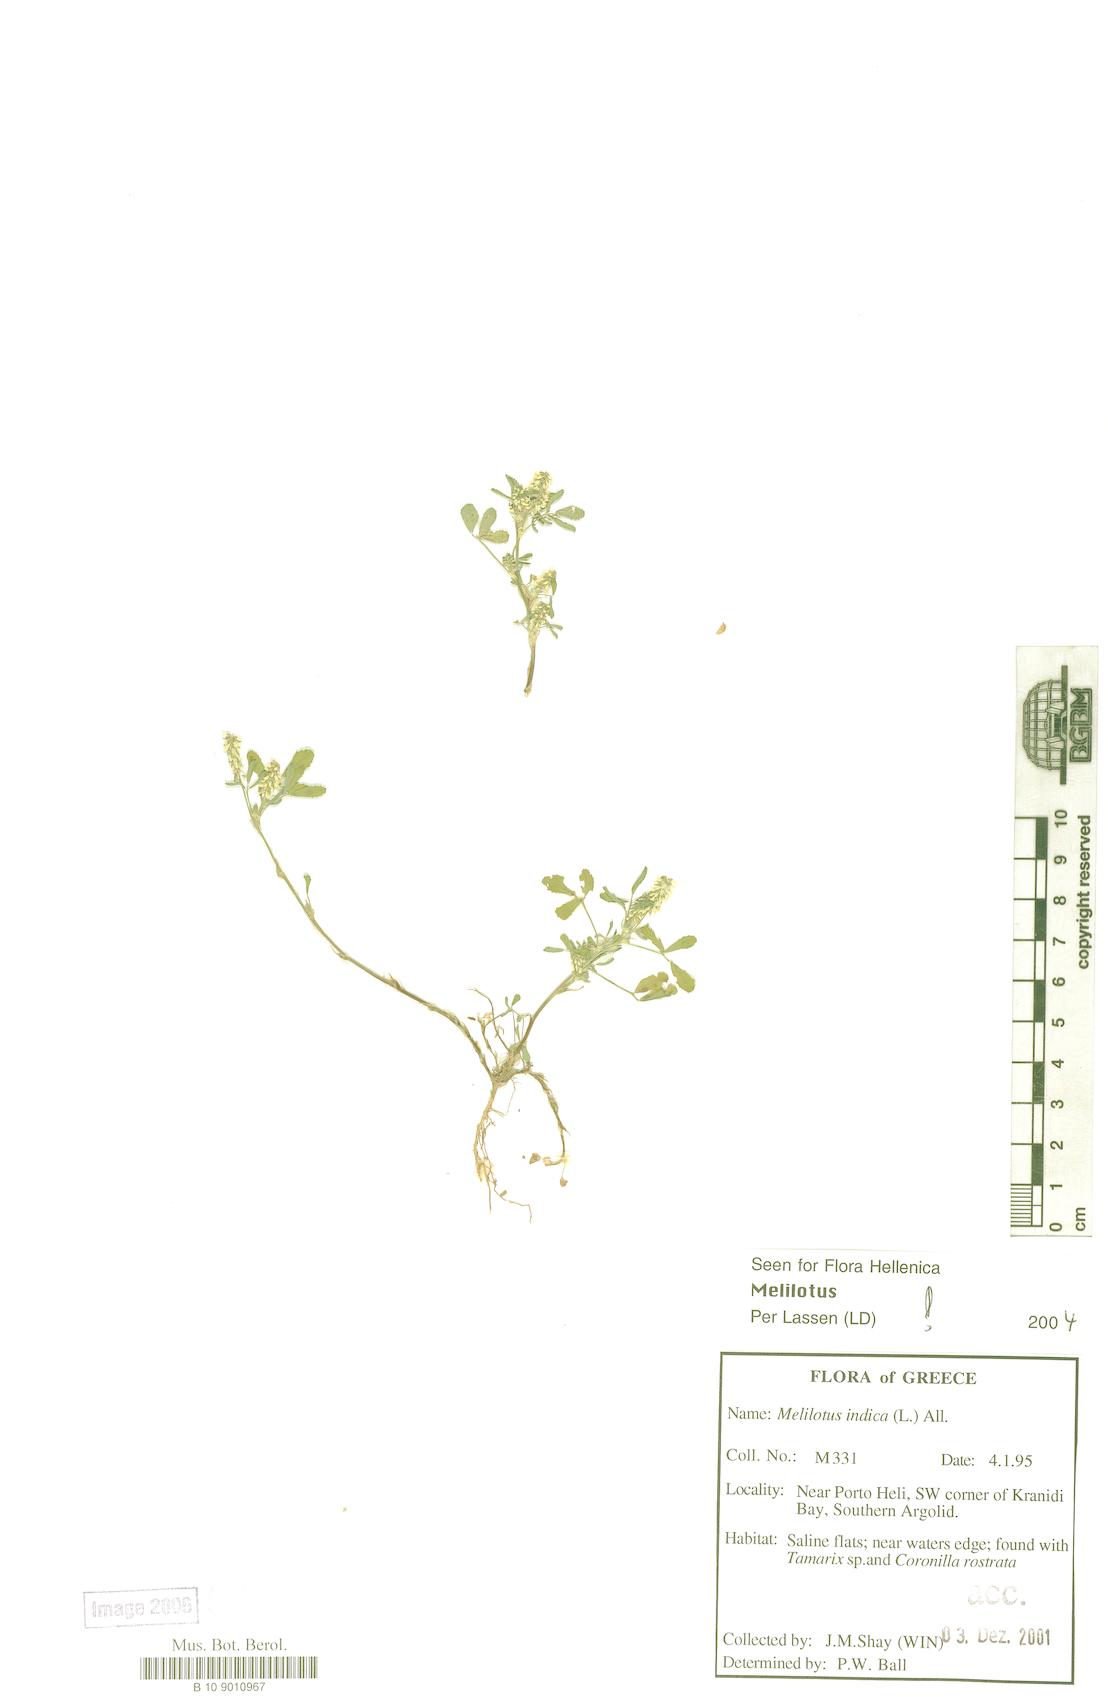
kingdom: Plantae
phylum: Tracheophyta
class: Magnoliopsida
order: Fabales
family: Fabaceae
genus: Melilotus
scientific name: Melilotus indicus
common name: Small melilot
